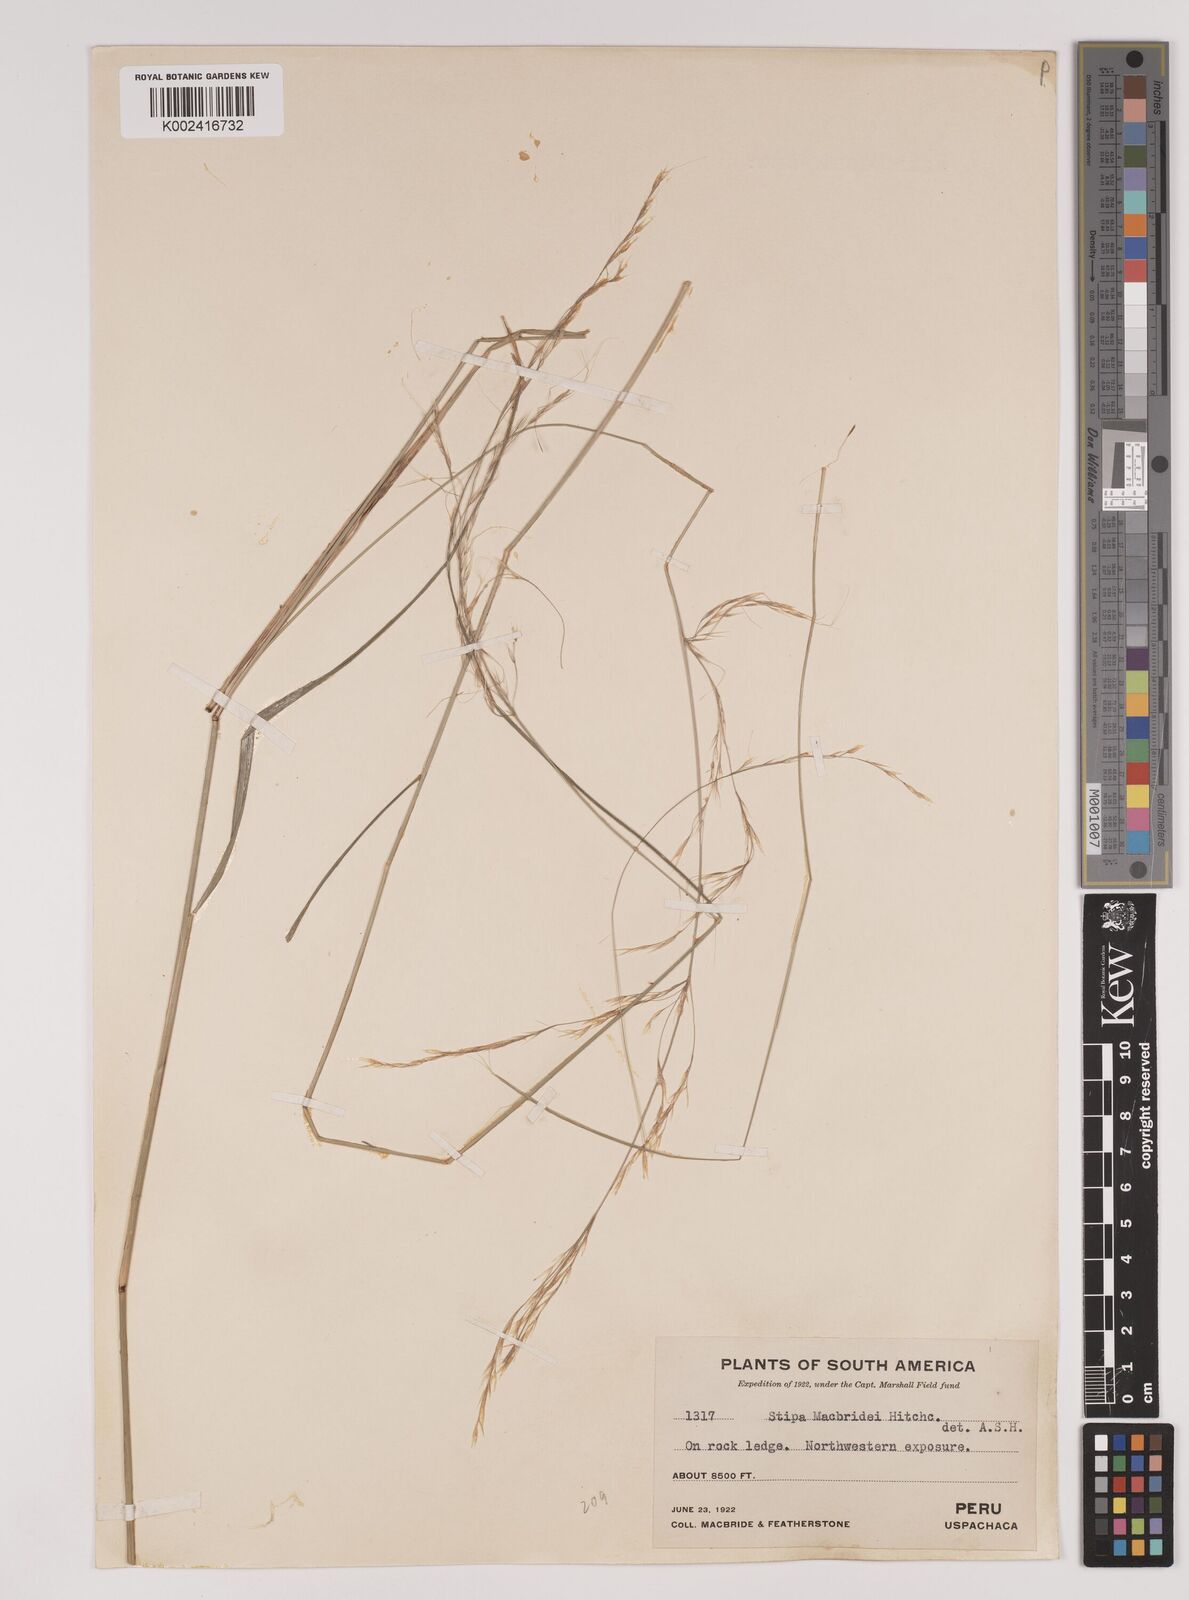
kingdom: Plantae
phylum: Tracheophyta
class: Liliopsida
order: Poales
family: Poaceae
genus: Stipa
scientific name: Stipa macbridei
